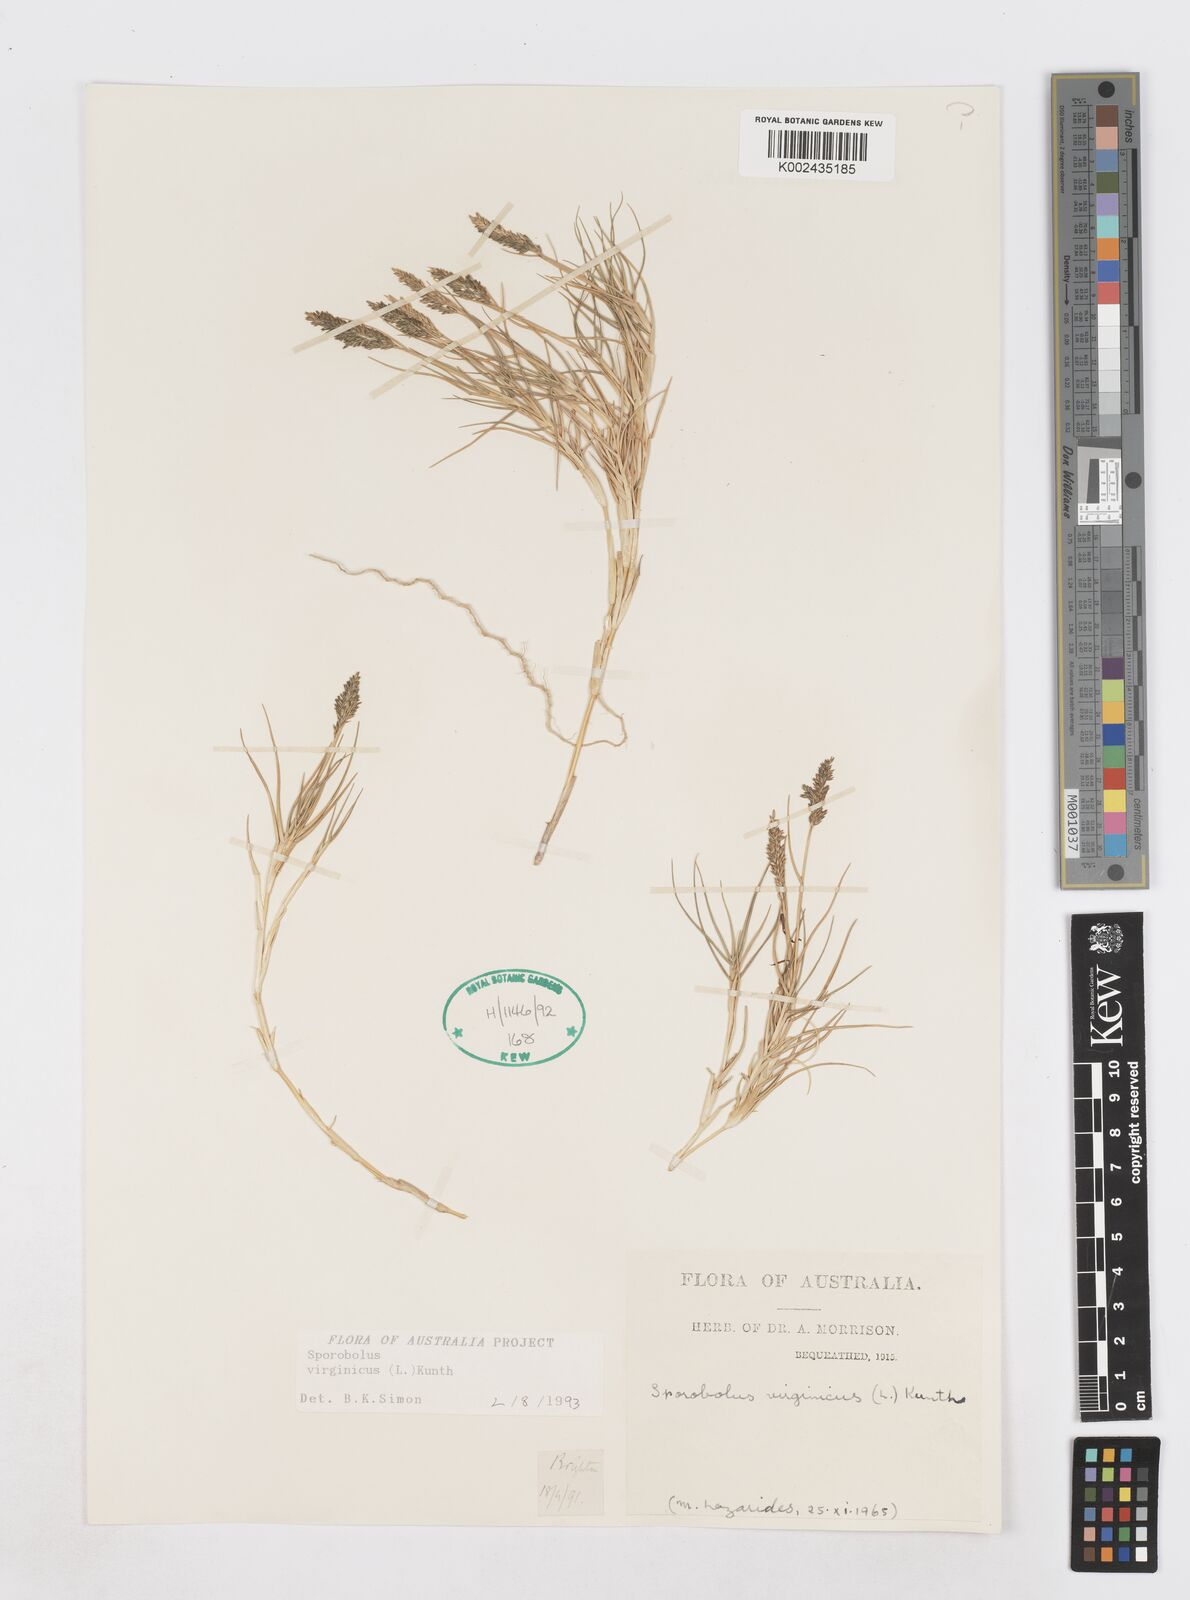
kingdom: Plantae
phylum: Tracheophyta
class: Liliopsida
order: Poales
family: Poaceae
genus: Sporobolus
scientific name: Sporobolus virginicus
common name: Beach dropseed
